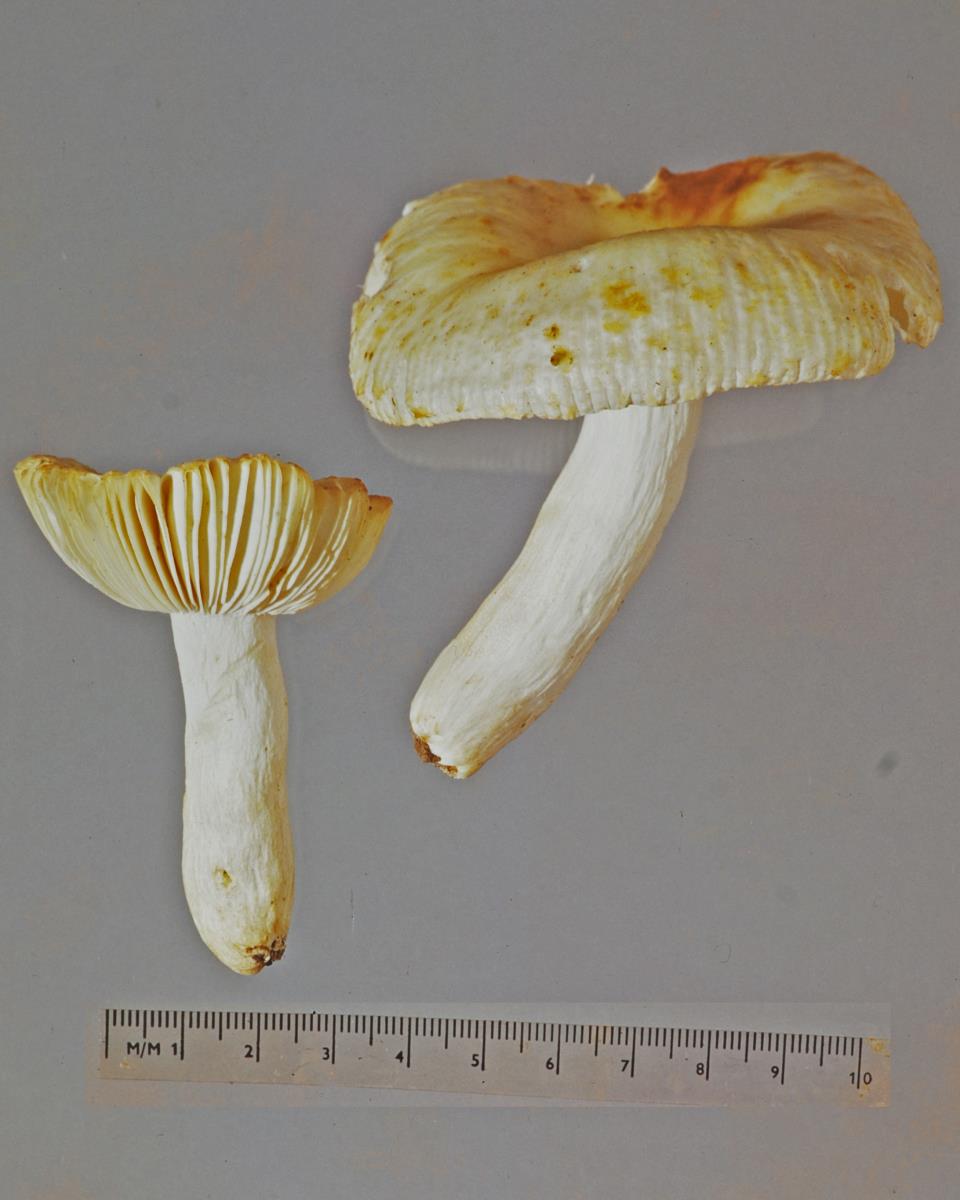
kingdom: Fungi
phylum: Basidiomycota
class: Agaricomycetes
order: Russulales
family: Russulaceae
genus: Russula
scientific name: Russula albolutescens
